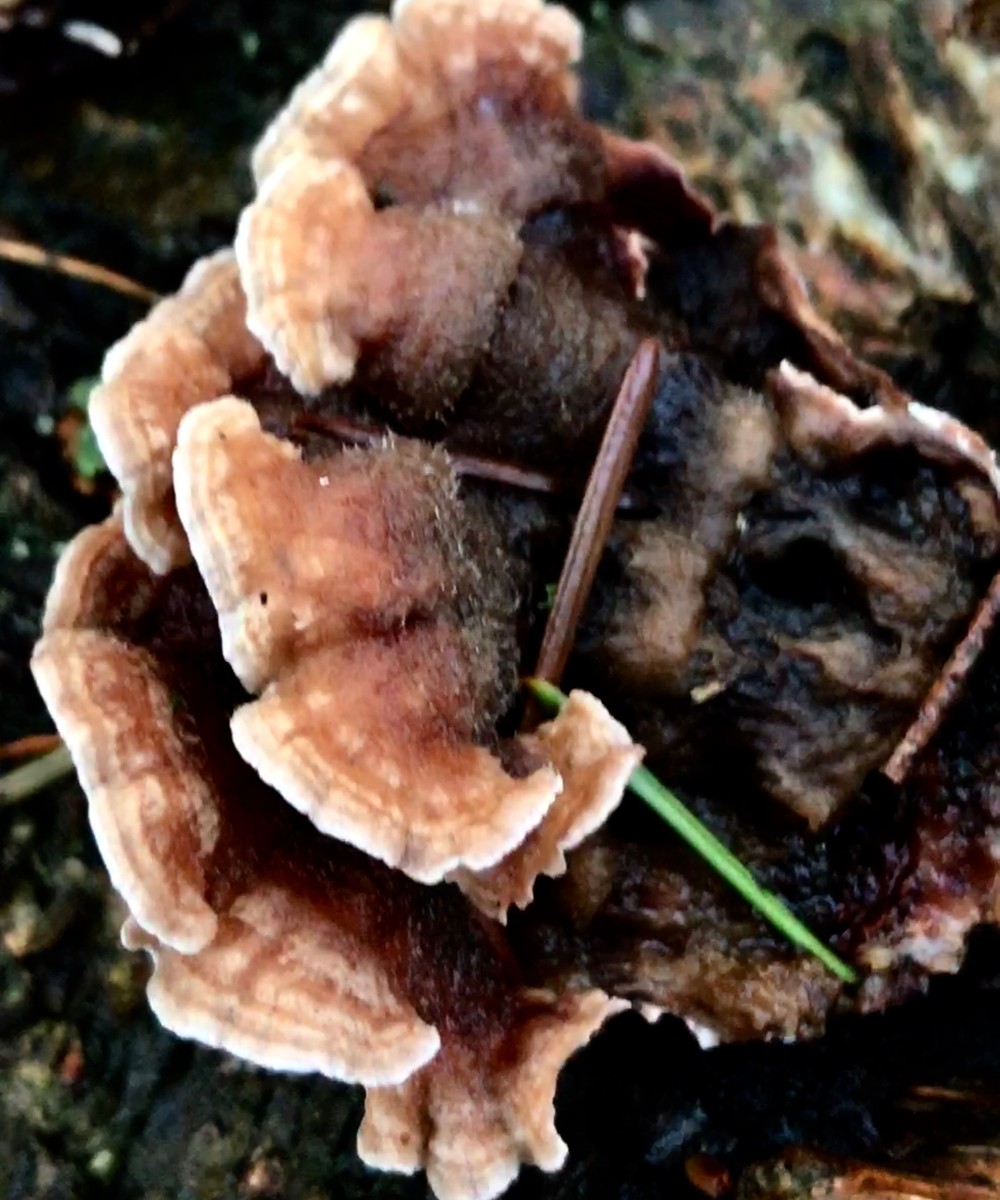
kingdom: Fungi
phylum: Basidiomycota
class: Agaricomycetes
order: Agaricales
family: Cyphellaceae
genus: Chondrostereum
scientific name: Chondrostereum purpureum
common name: purpurlædersvamp
